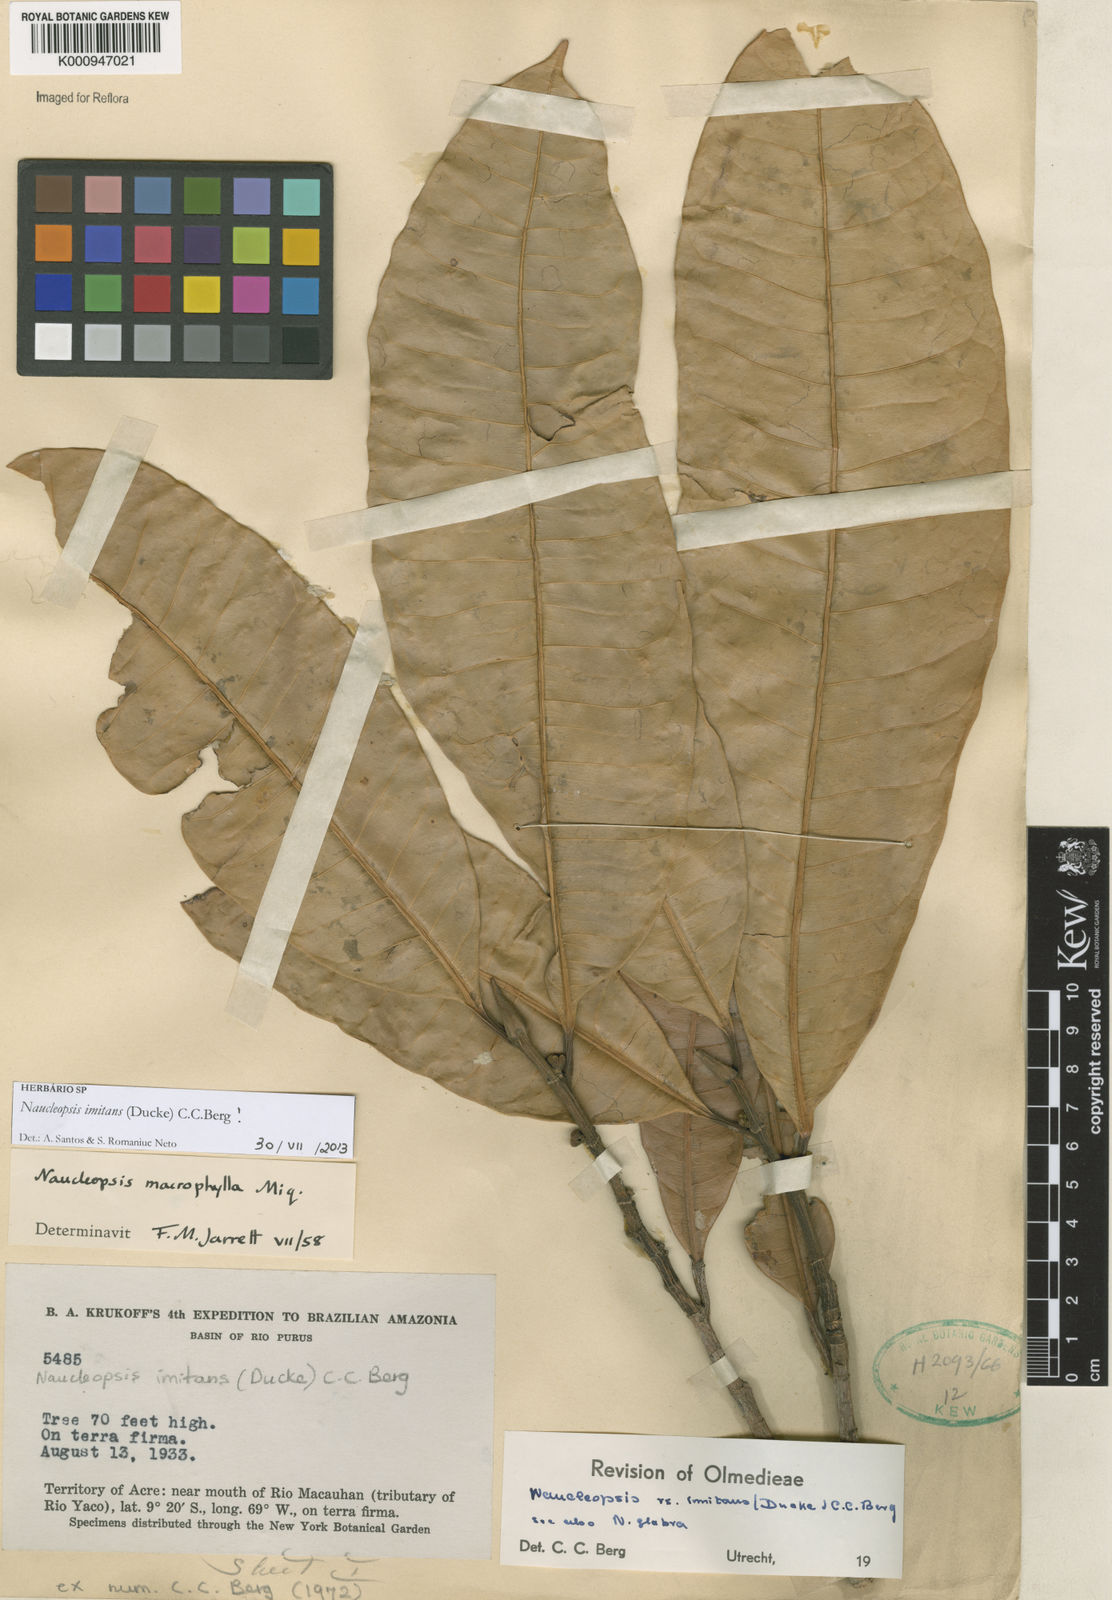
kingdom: Plantae
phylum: Tracheophyta
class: Magnoliopsida
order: Rosales
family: Moraceae
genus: Naucleopsis
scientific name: Naucleopsis imitans
